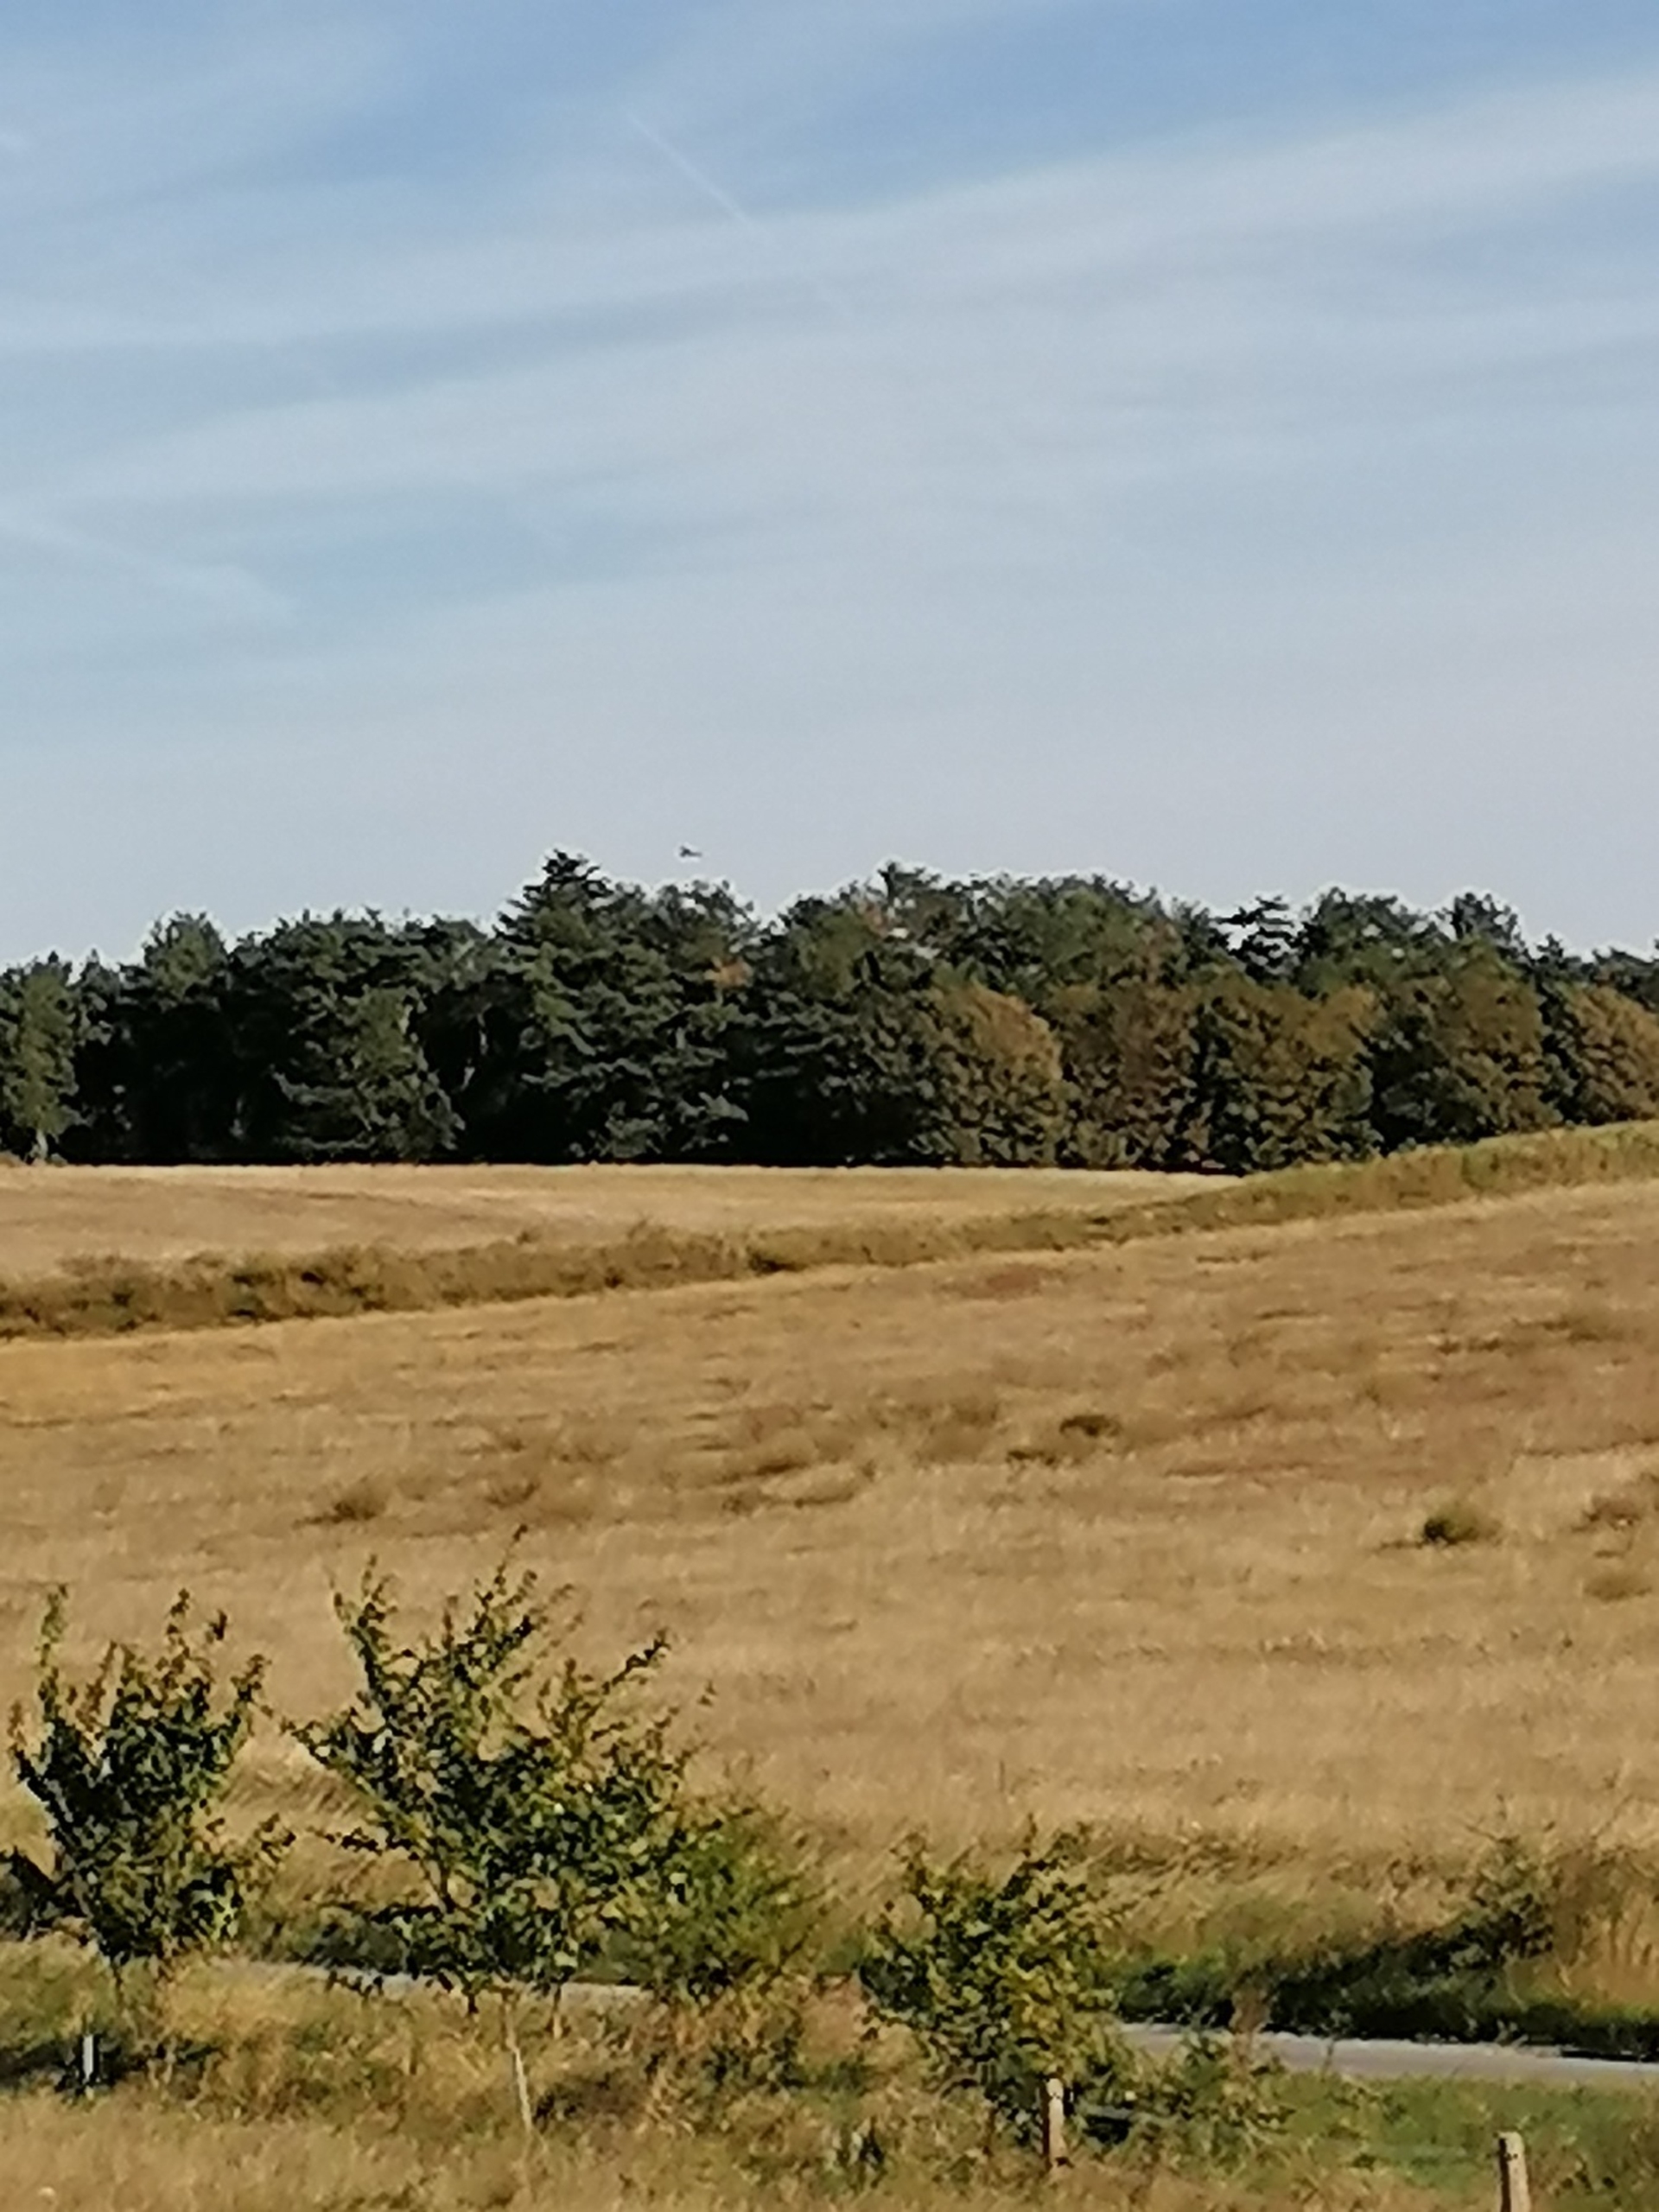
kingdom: Animalia
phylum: Chordata
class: Aves
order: Falconiformes
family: Falconidae
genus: Falco
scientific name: Falco tinnunculus
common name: Tårnfalk
